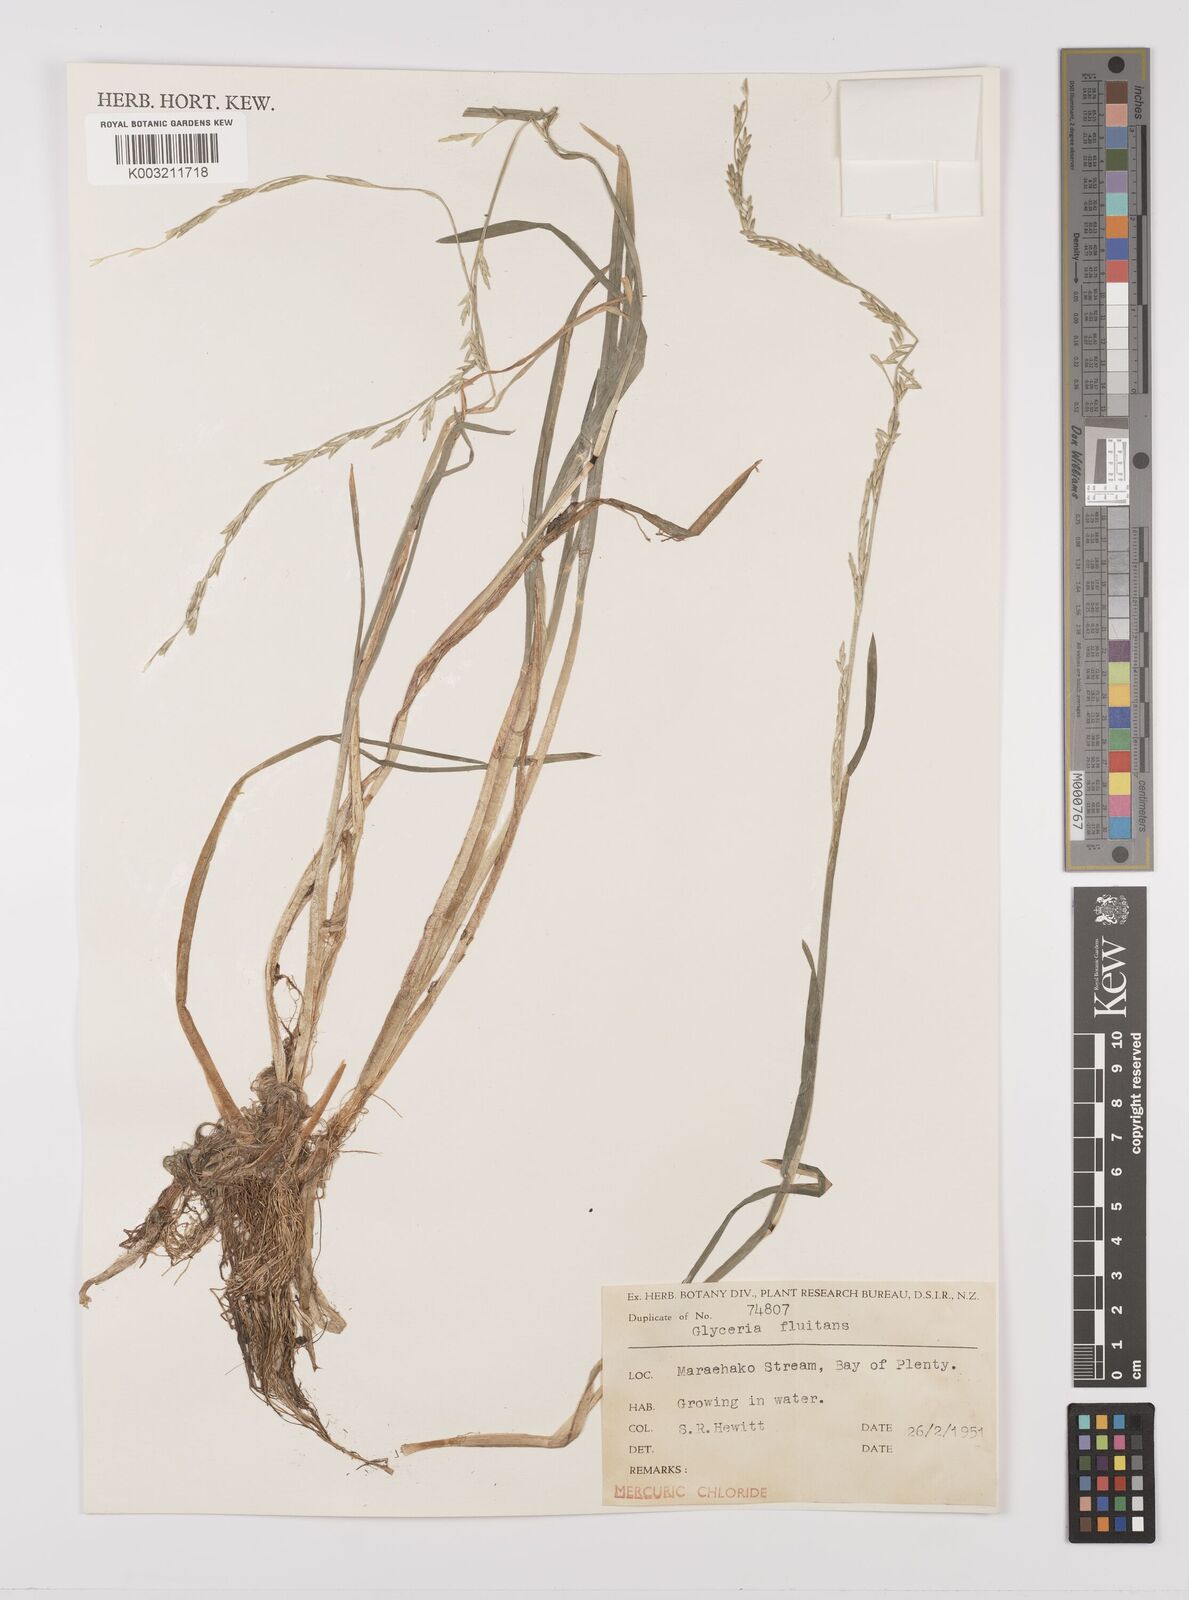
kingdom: Plantae
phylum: Tracheophyta
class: Liliopsida
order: Poales
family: Poaceae
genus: Glyceria
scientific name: Glyceria fluitans
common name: Floating sweet-grass
